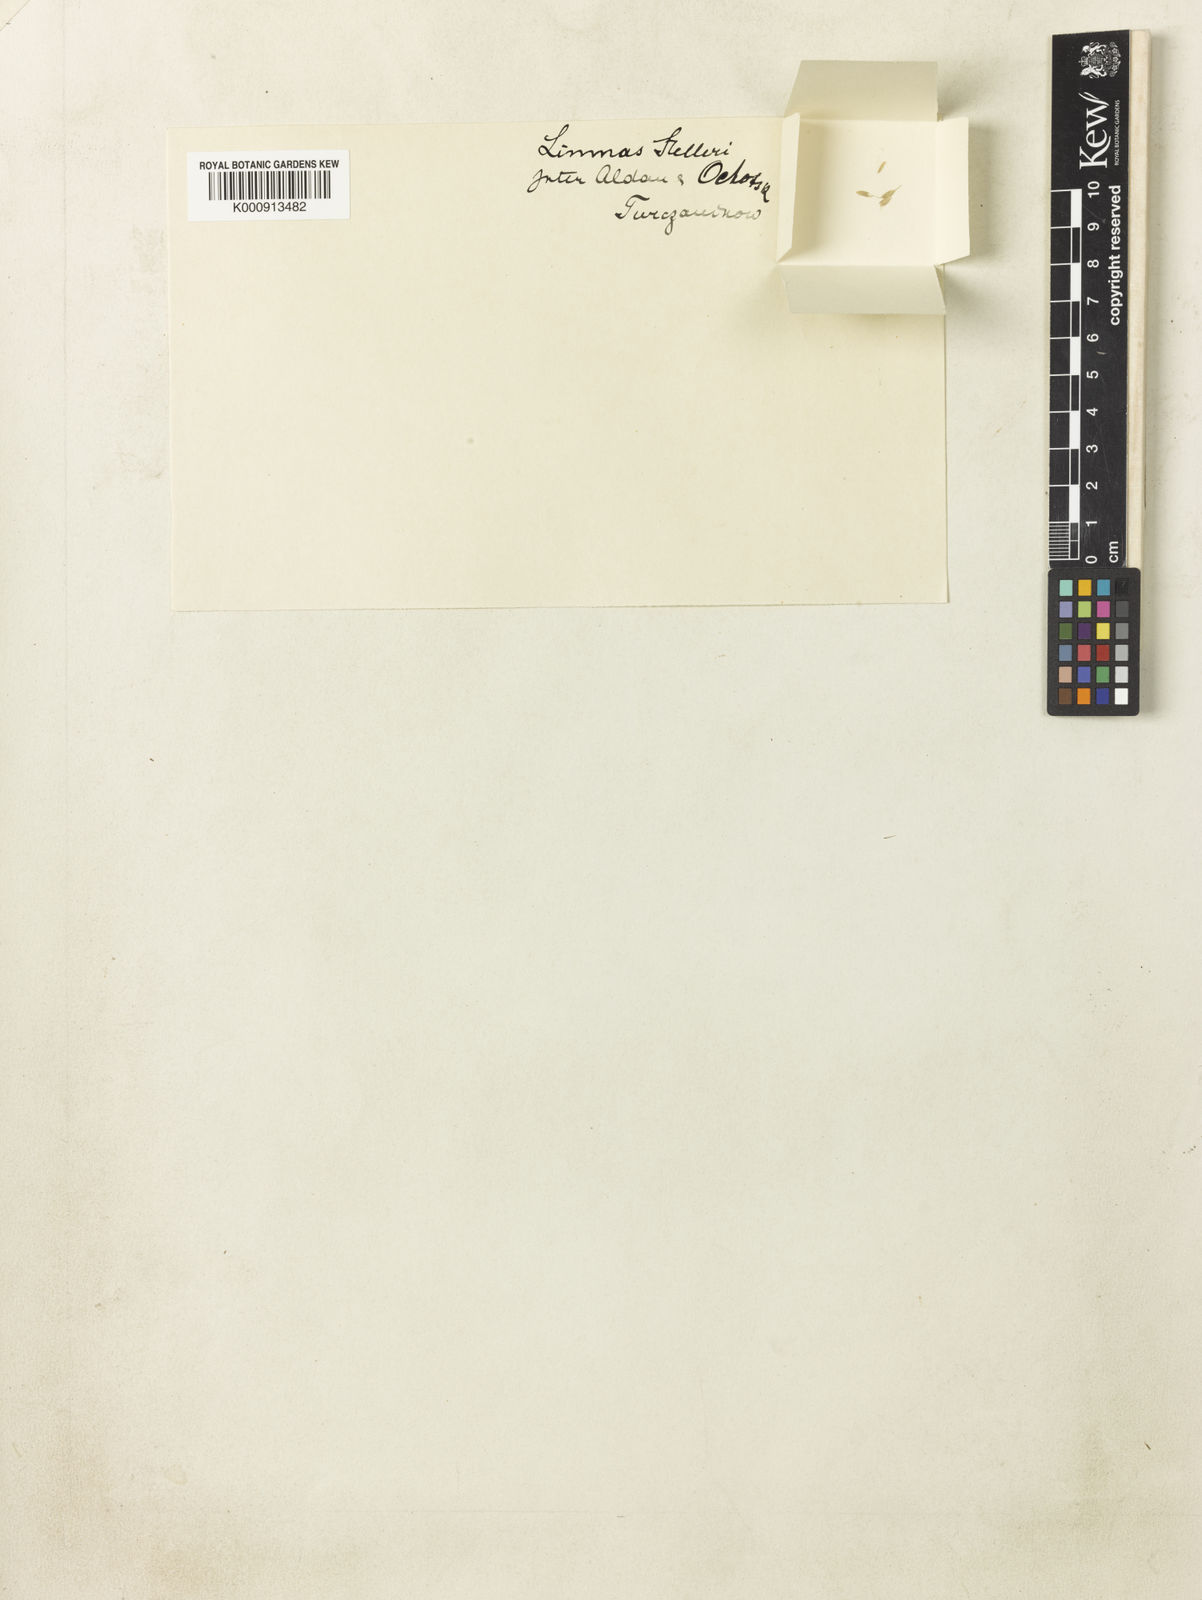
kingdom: Plantae
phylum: Tracheophyta
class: Liliopsida
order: Poales
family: Poaceae
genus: Limnas
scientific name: Limnas stelleri
